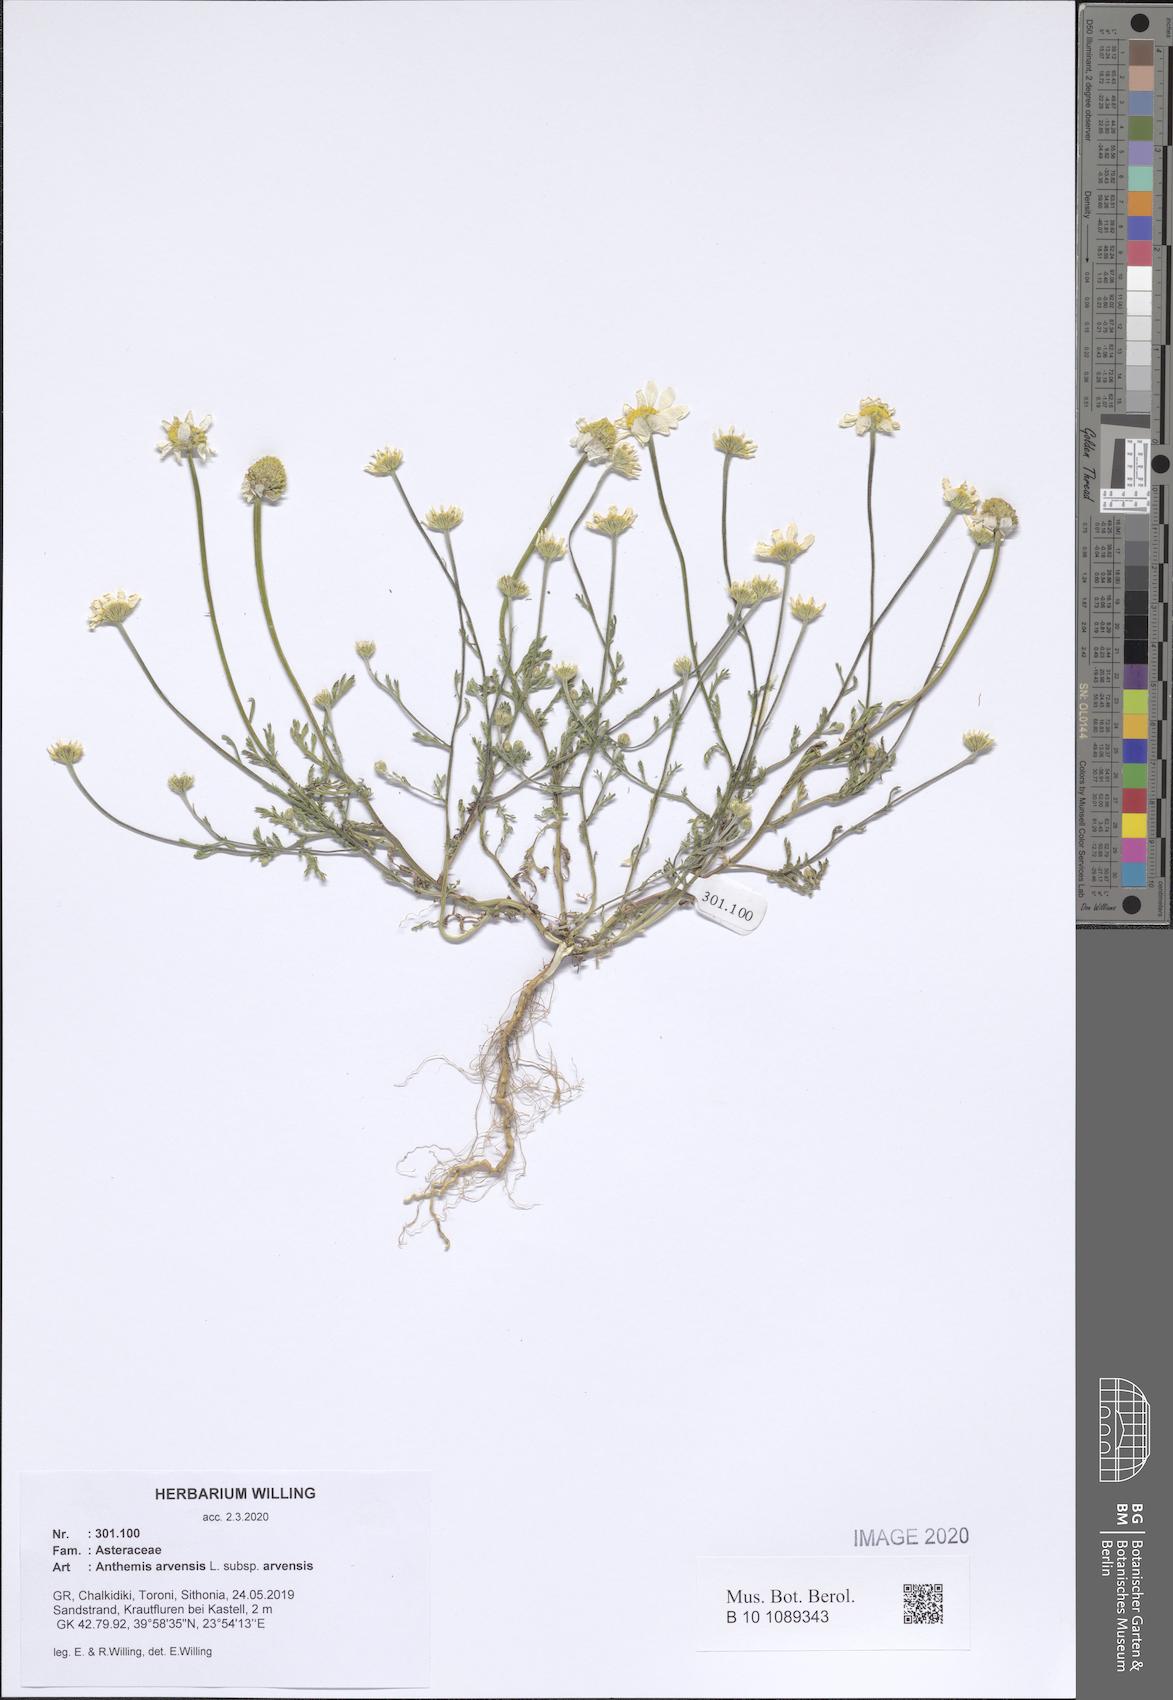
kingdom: Plantae
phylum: Tracheophyta
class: Magnoliopsida
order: Asterales
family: Asteraceae
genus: Anthemis
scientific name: Anthemis arvensis
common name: Corn chamomile
